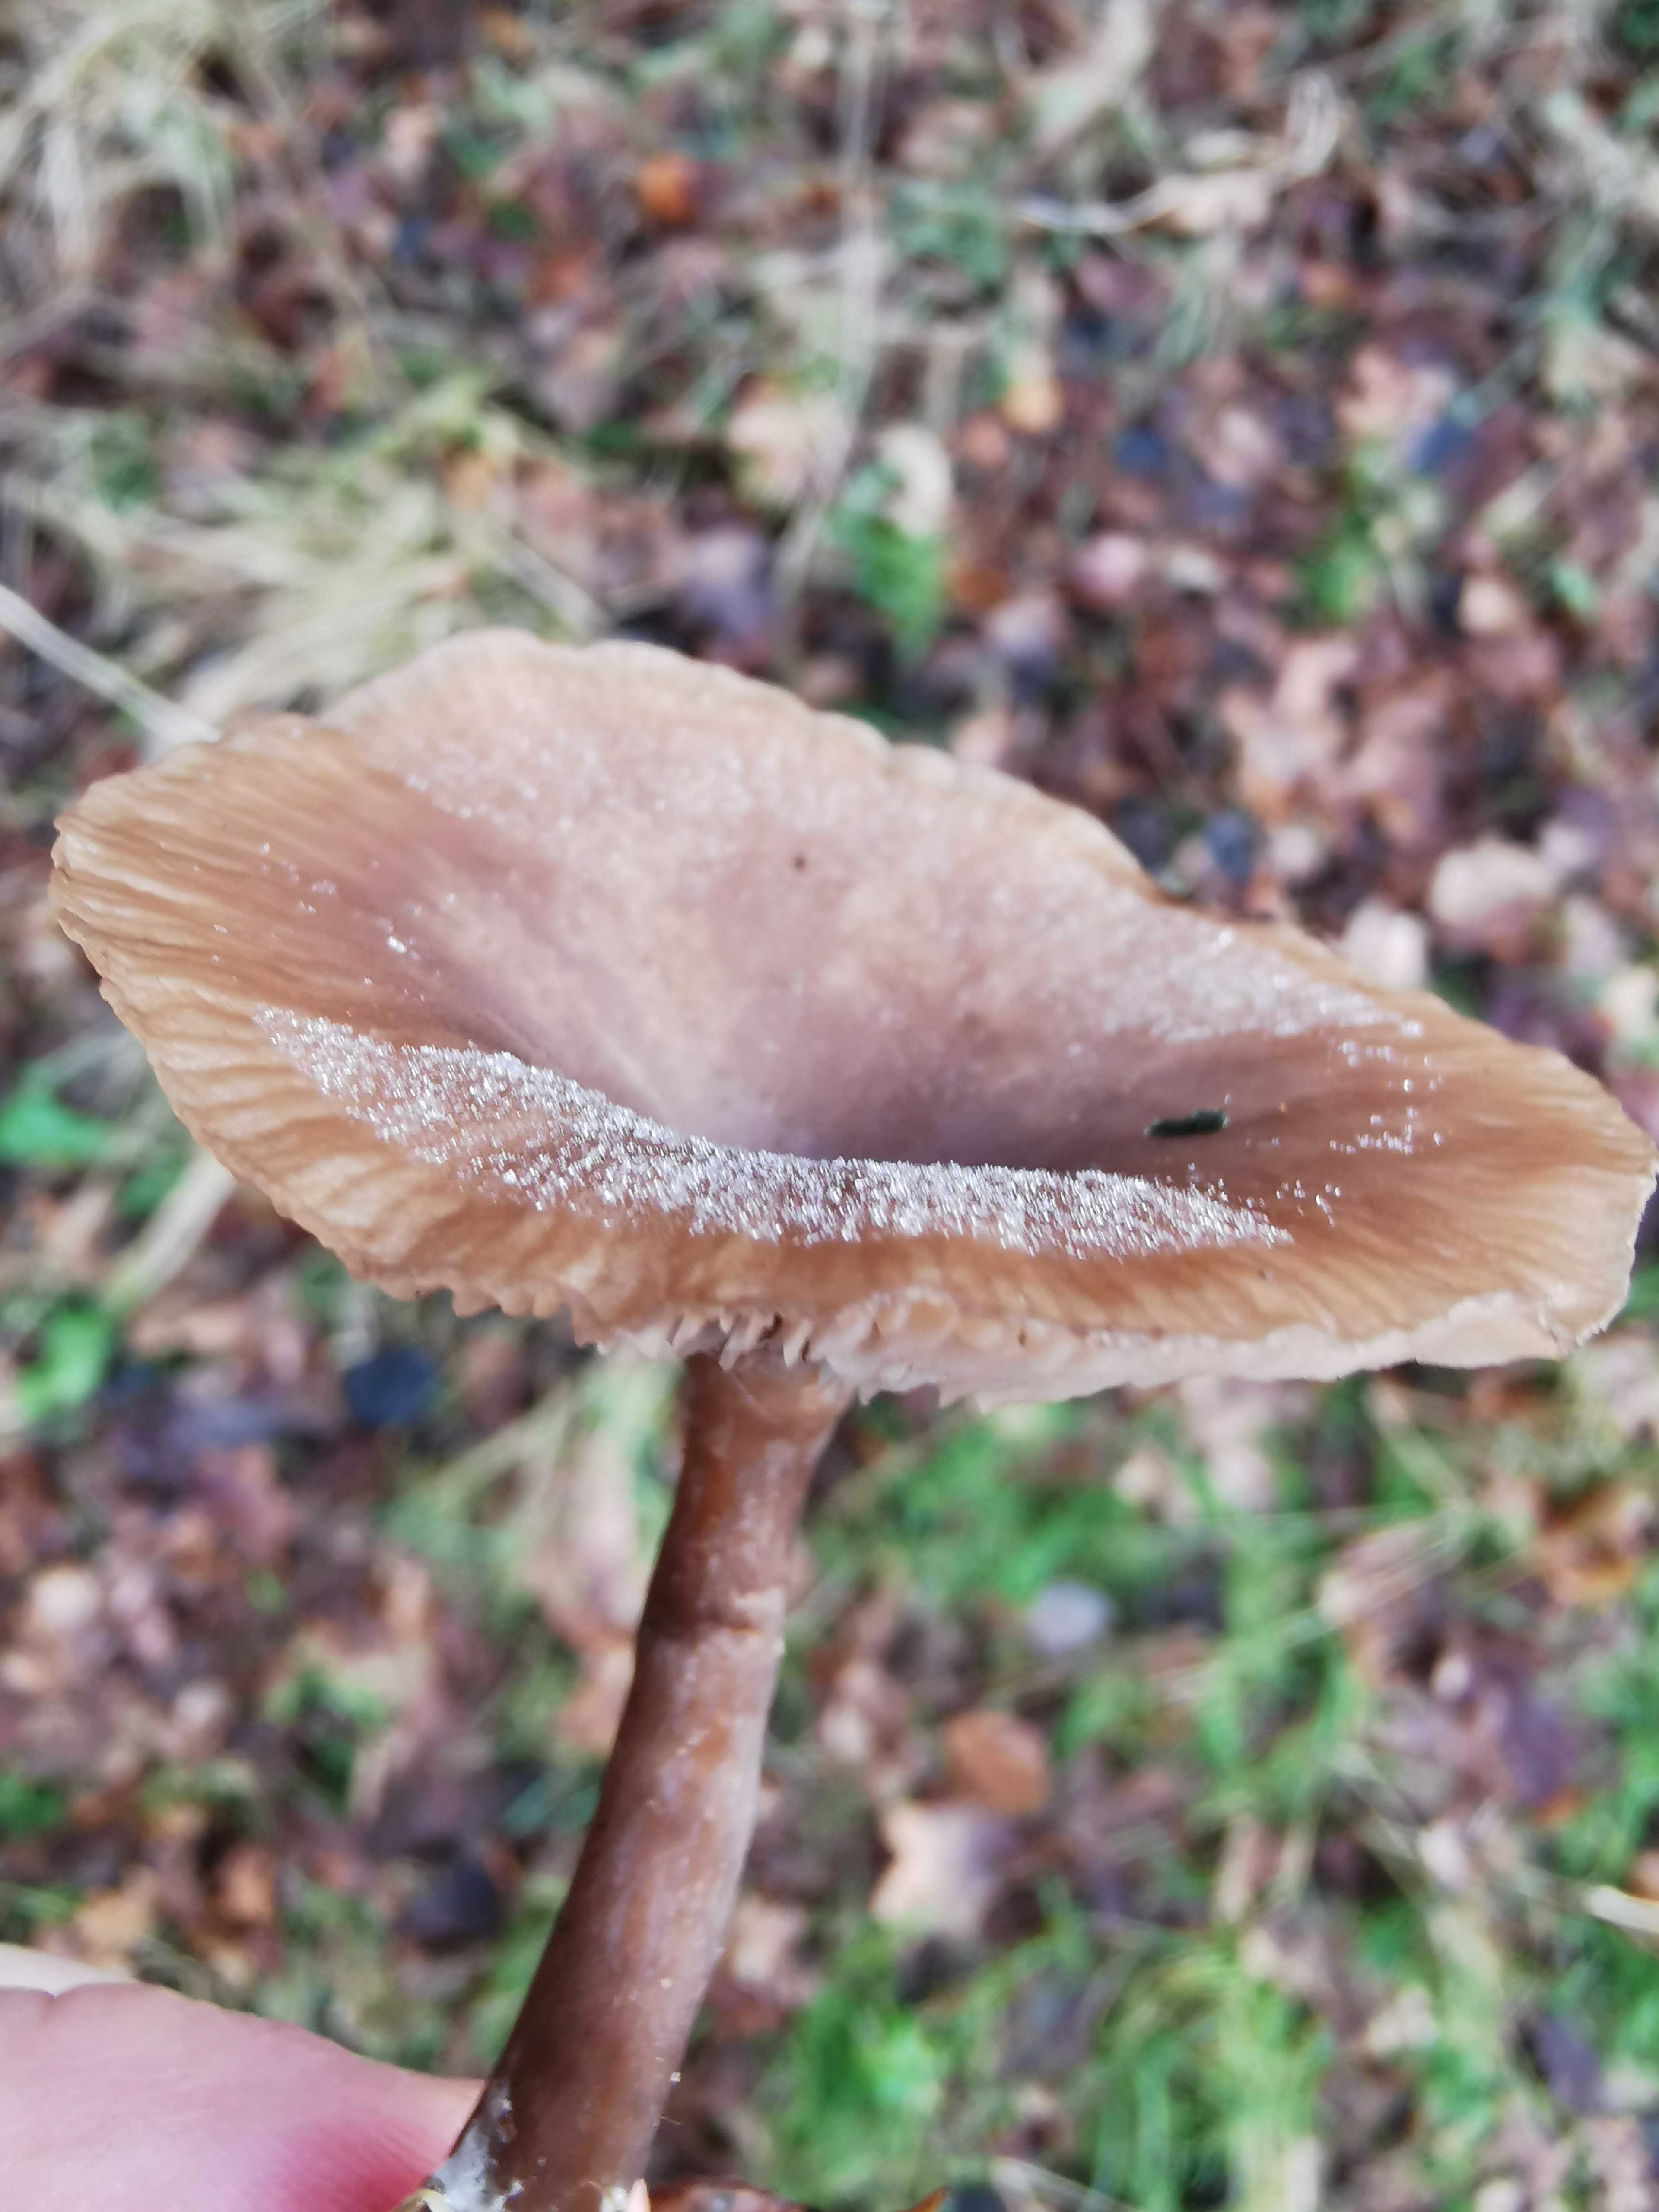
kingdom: Fungi
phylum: Basidiomycota
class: Agaricomycetes
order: Agaricales
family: Pseudoclitocybaceae
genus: Pseudoclitocybe
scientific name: Pseudoclitocybe cyathiformis
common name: almindelig bægertragthat
